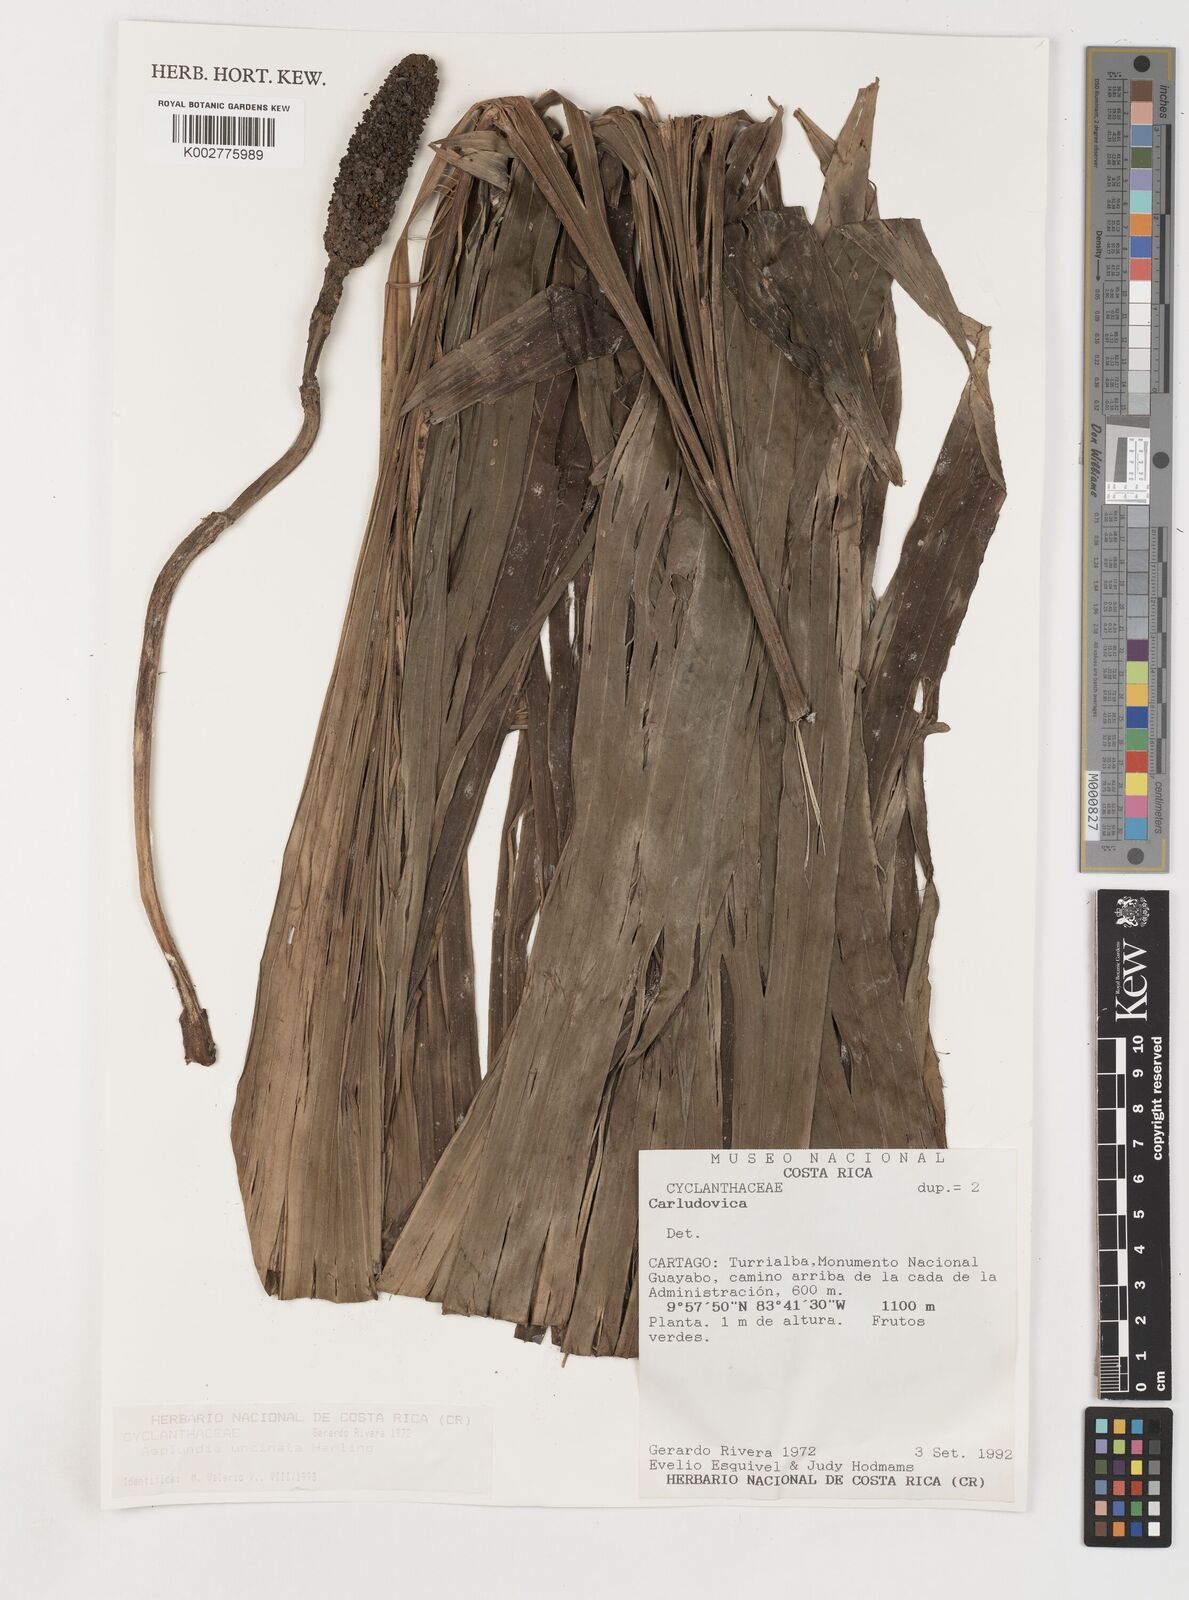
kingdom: Plantae
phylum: Tracheophyta
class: Liliopsida
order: Pandanales
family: Cyclanthaceae
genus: Asplundia
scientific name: Asplundia uncinata
